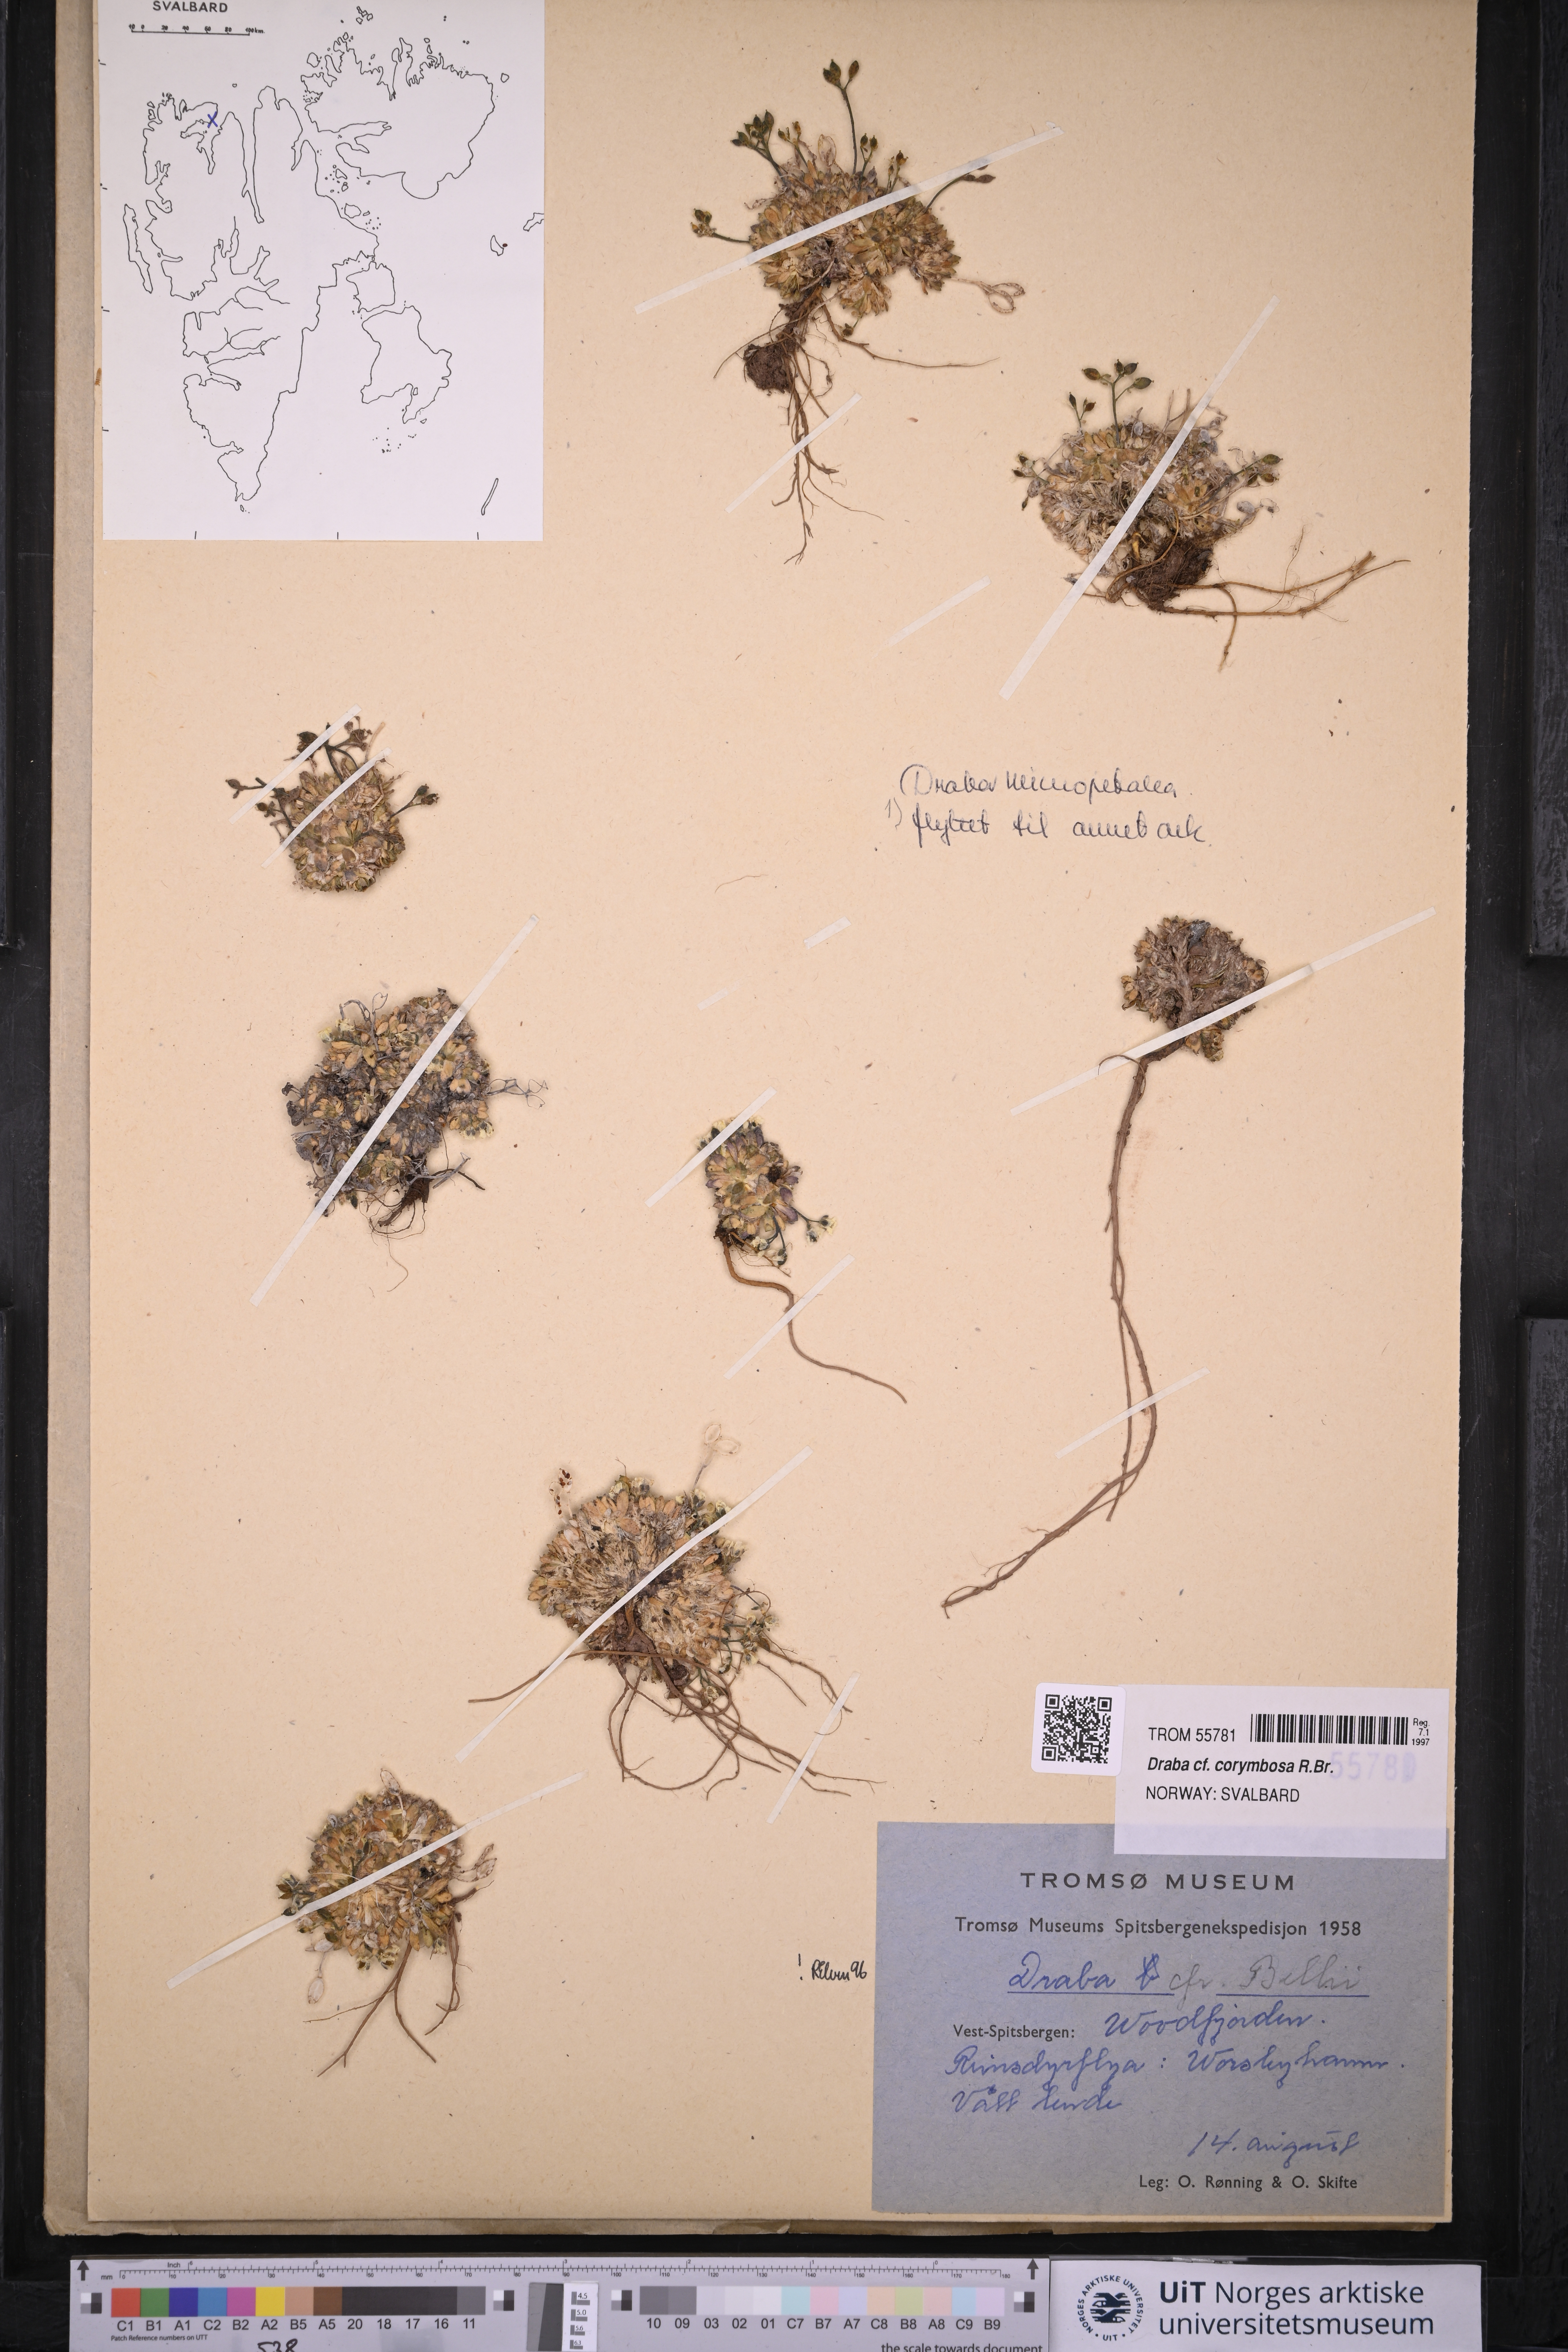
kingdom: Plantae
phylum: Tracheophyta
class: Magnoliopsida
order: Brassicales
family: Brassicaceae
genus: Draba
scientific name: Draba corymbosa
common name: Cushion whitlow-grass
